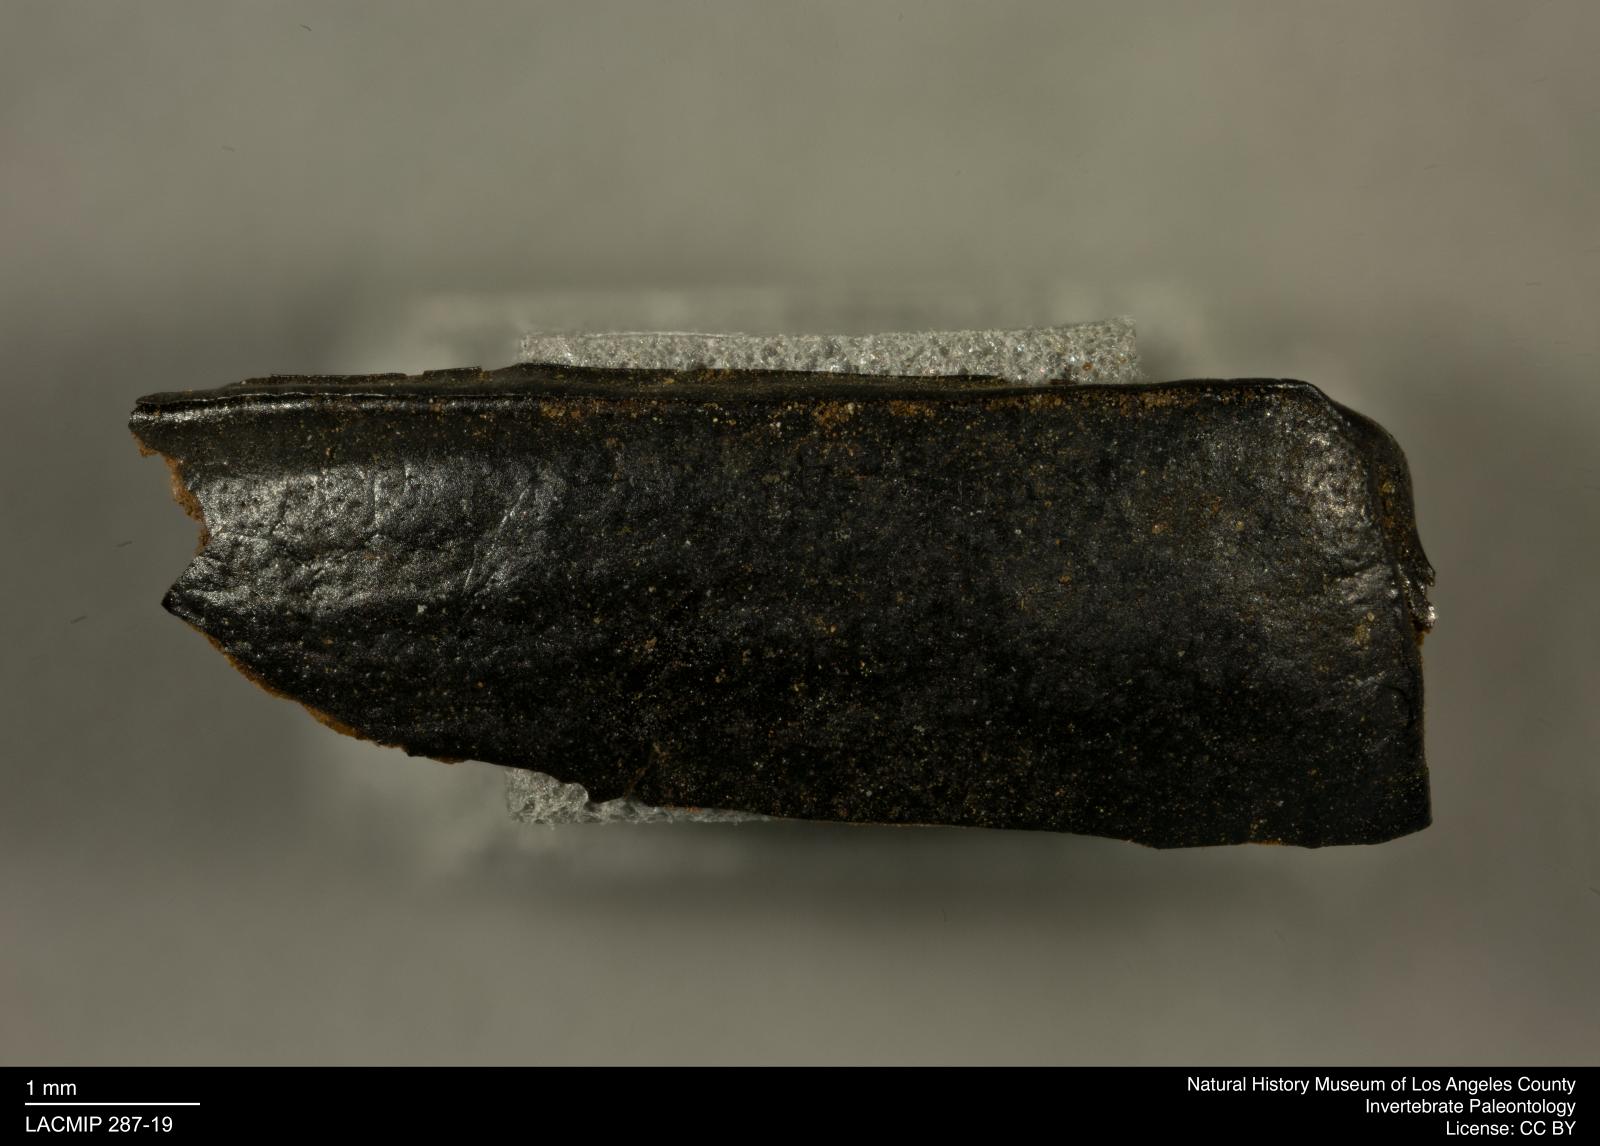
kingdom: Animalia
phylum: Arthropoda
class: Insecta
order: Coleoptera
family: Tenebrionidae
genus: Coniontis
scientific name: Coniontis abdominalis
